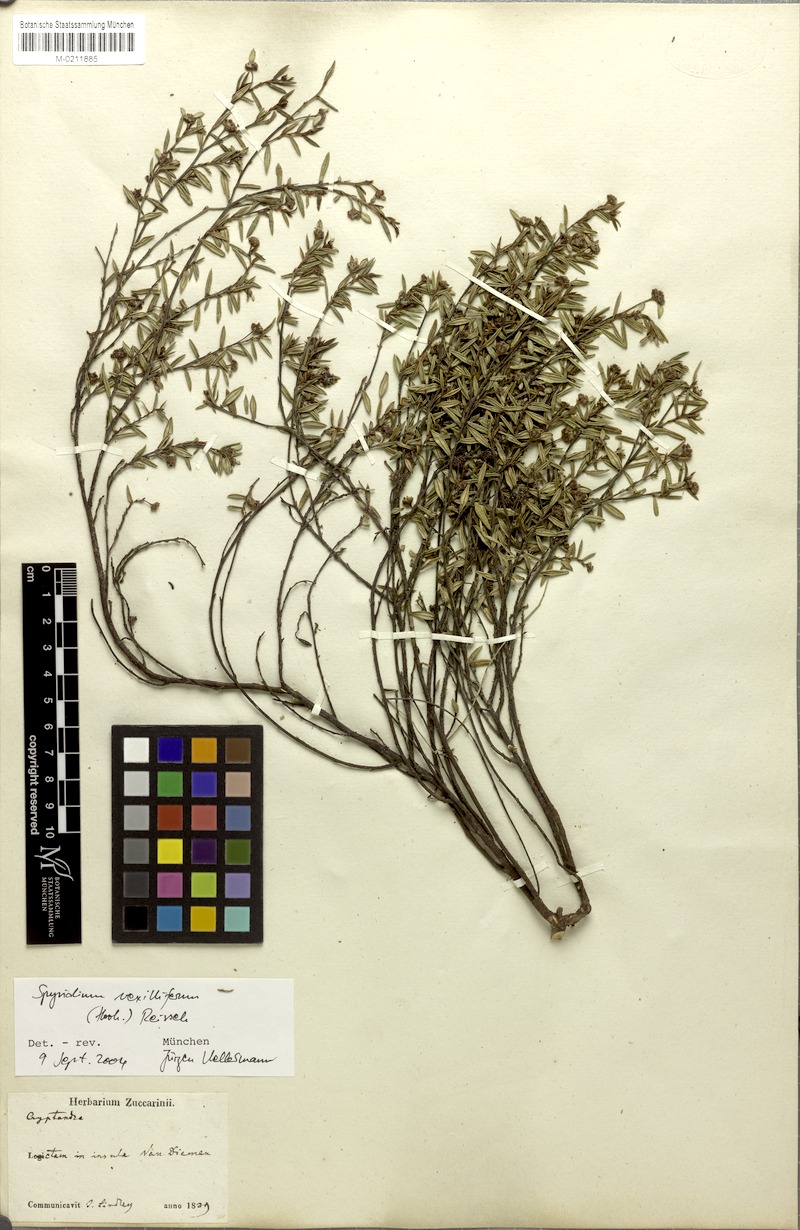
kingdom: Plantae
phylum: Tracheophyta
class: Magnoliopsida
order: Rosales
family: Rhamnaceae
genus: Spyridium
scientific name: Spyridium vexilliferum
